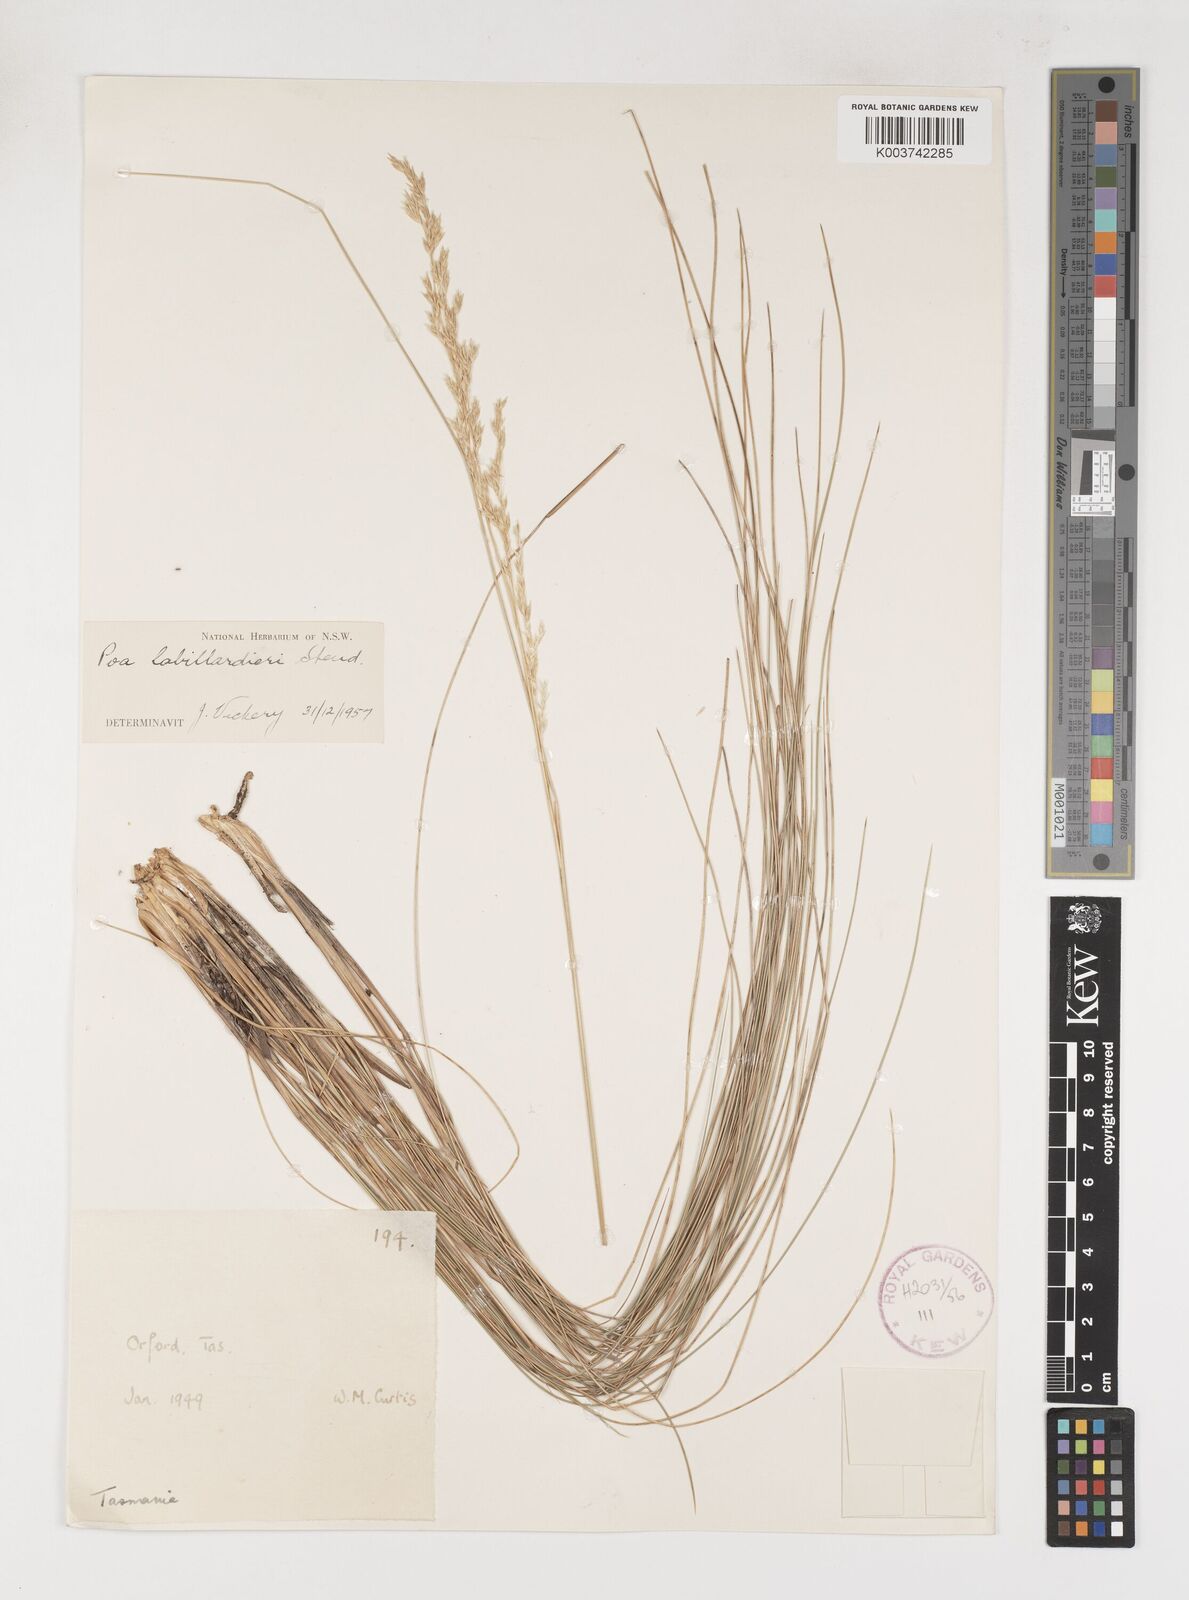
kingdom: Plantae
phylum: Tracheophyta
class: Liliopsida
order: Poales
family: Poaceae
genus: Poa
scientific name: Poa labillardierei
